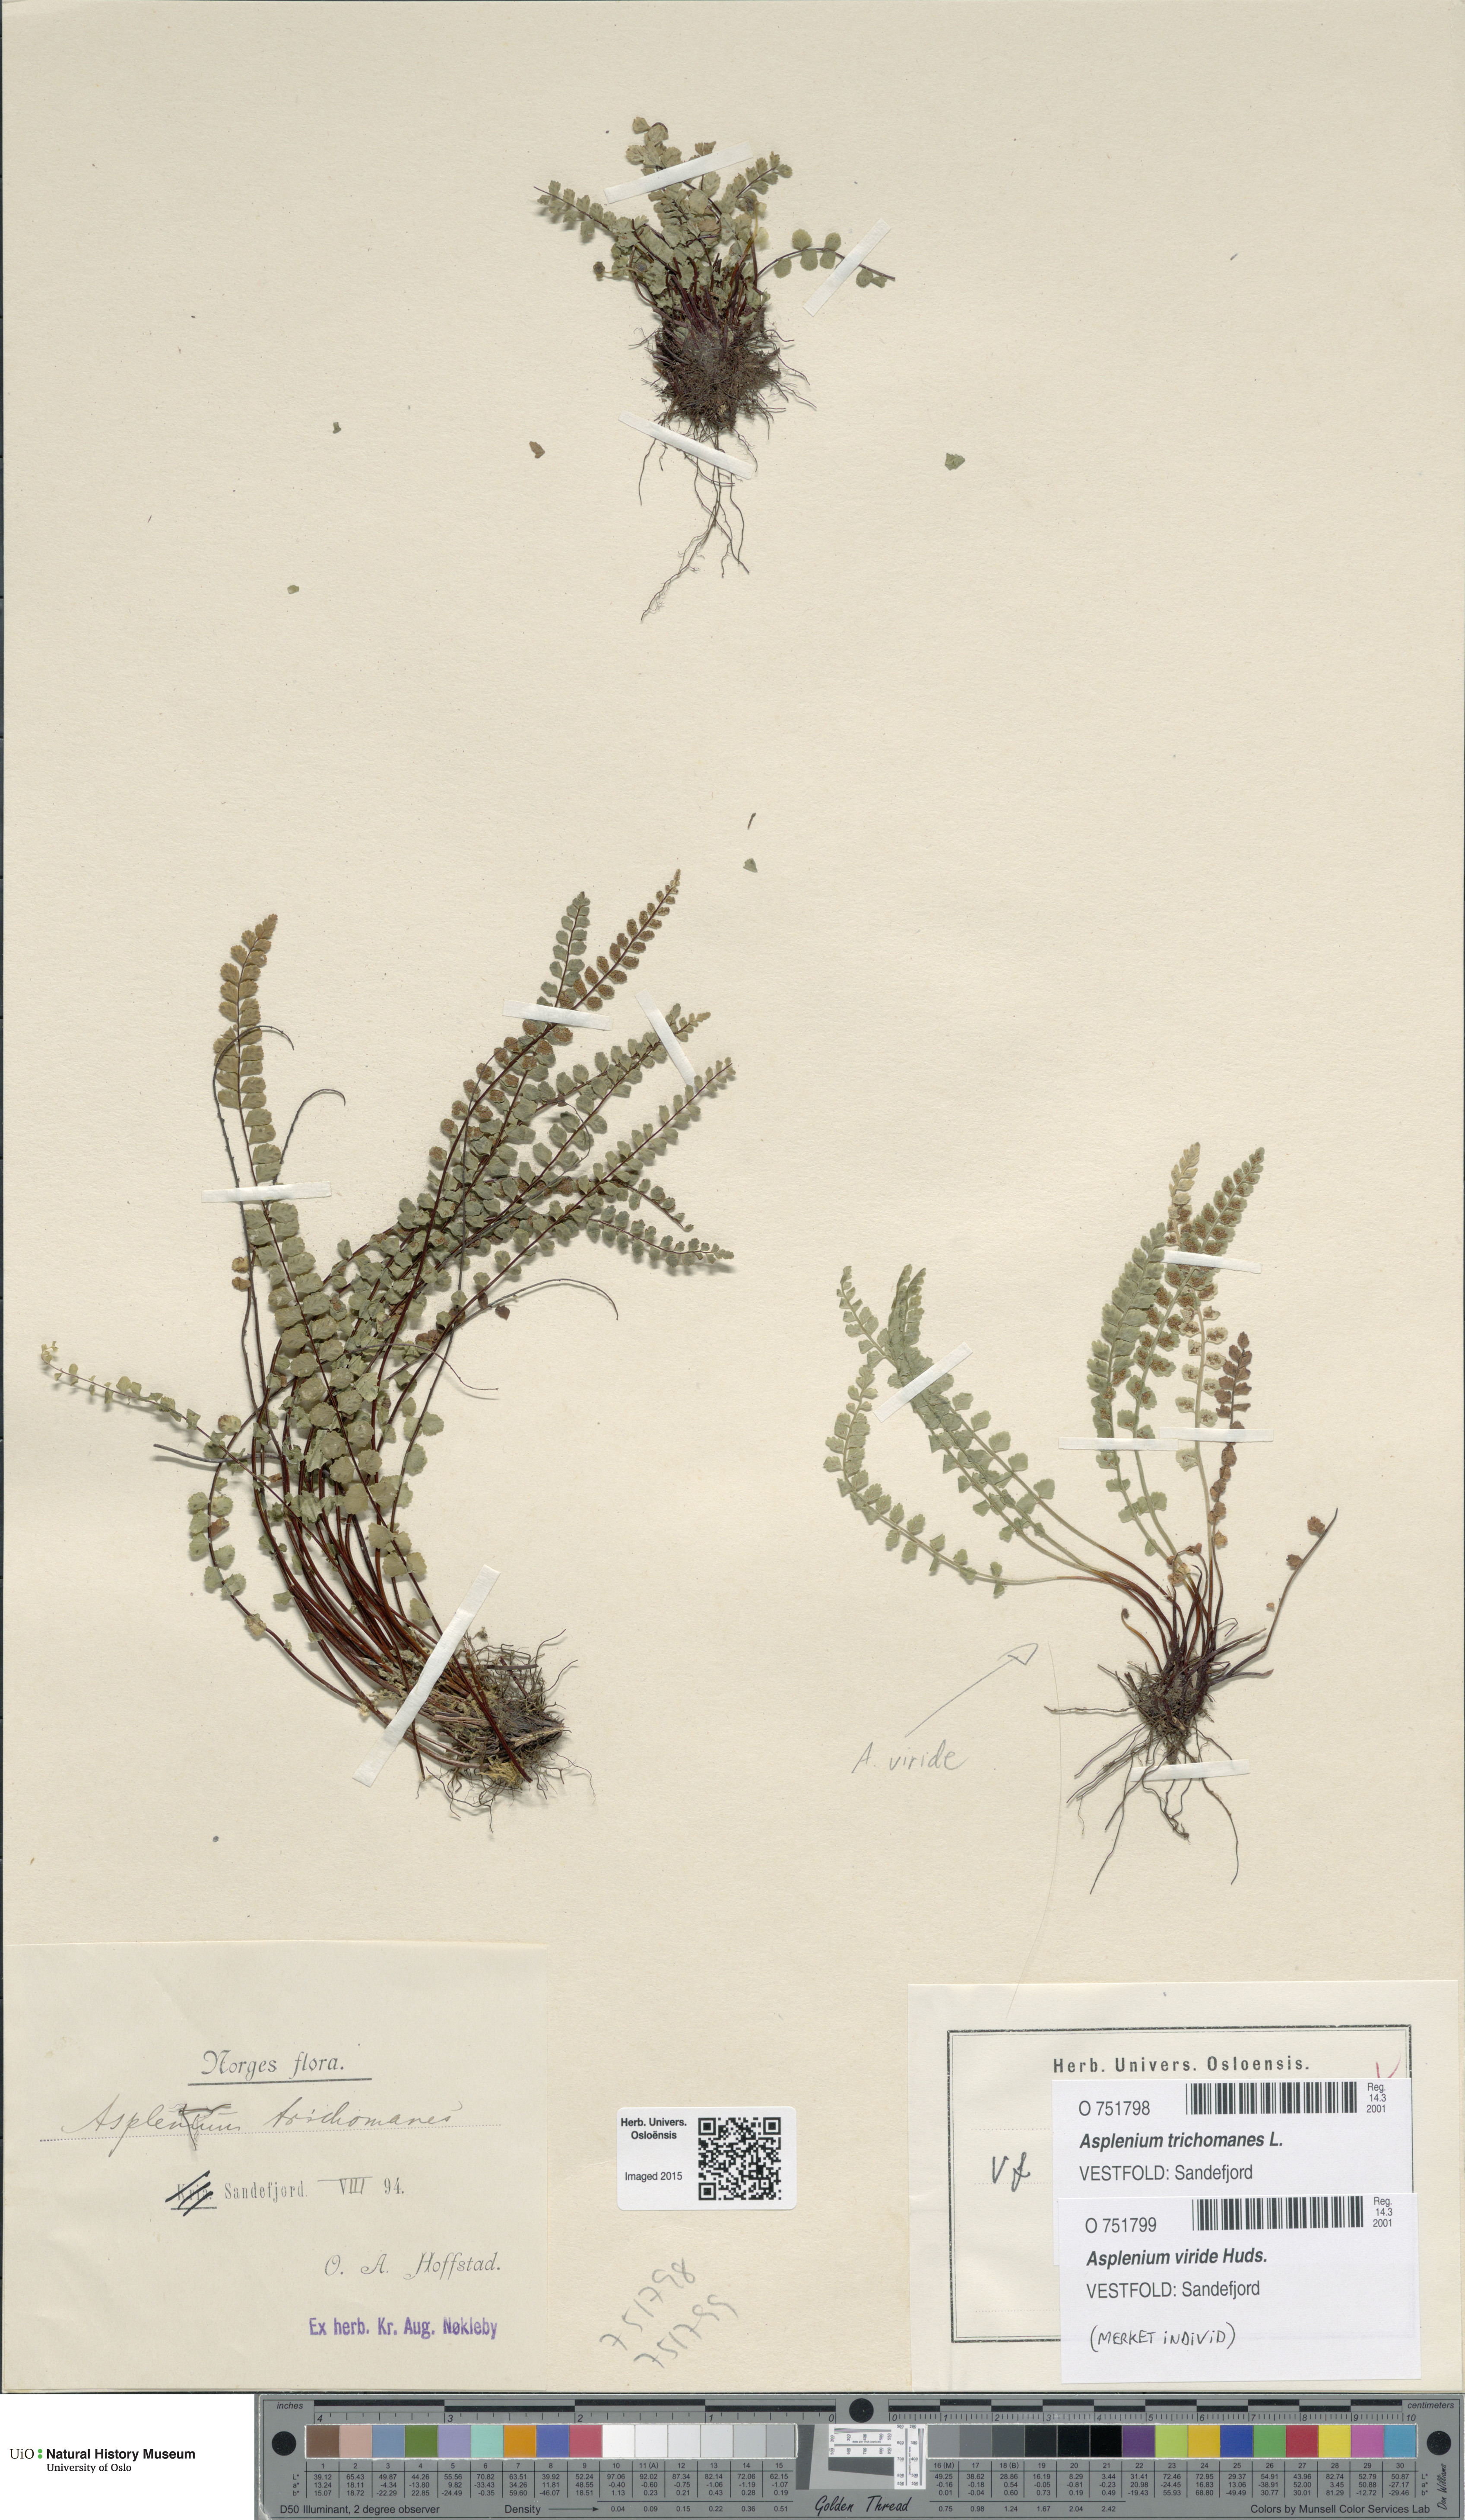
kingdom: Plantae
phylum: Tracheophyta
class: Polypodiopsida
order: Polypodiales
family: Aspleniaceae
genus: Asplenium
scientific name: Asplenium trichomanes
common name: Maidenhair spleenwort
